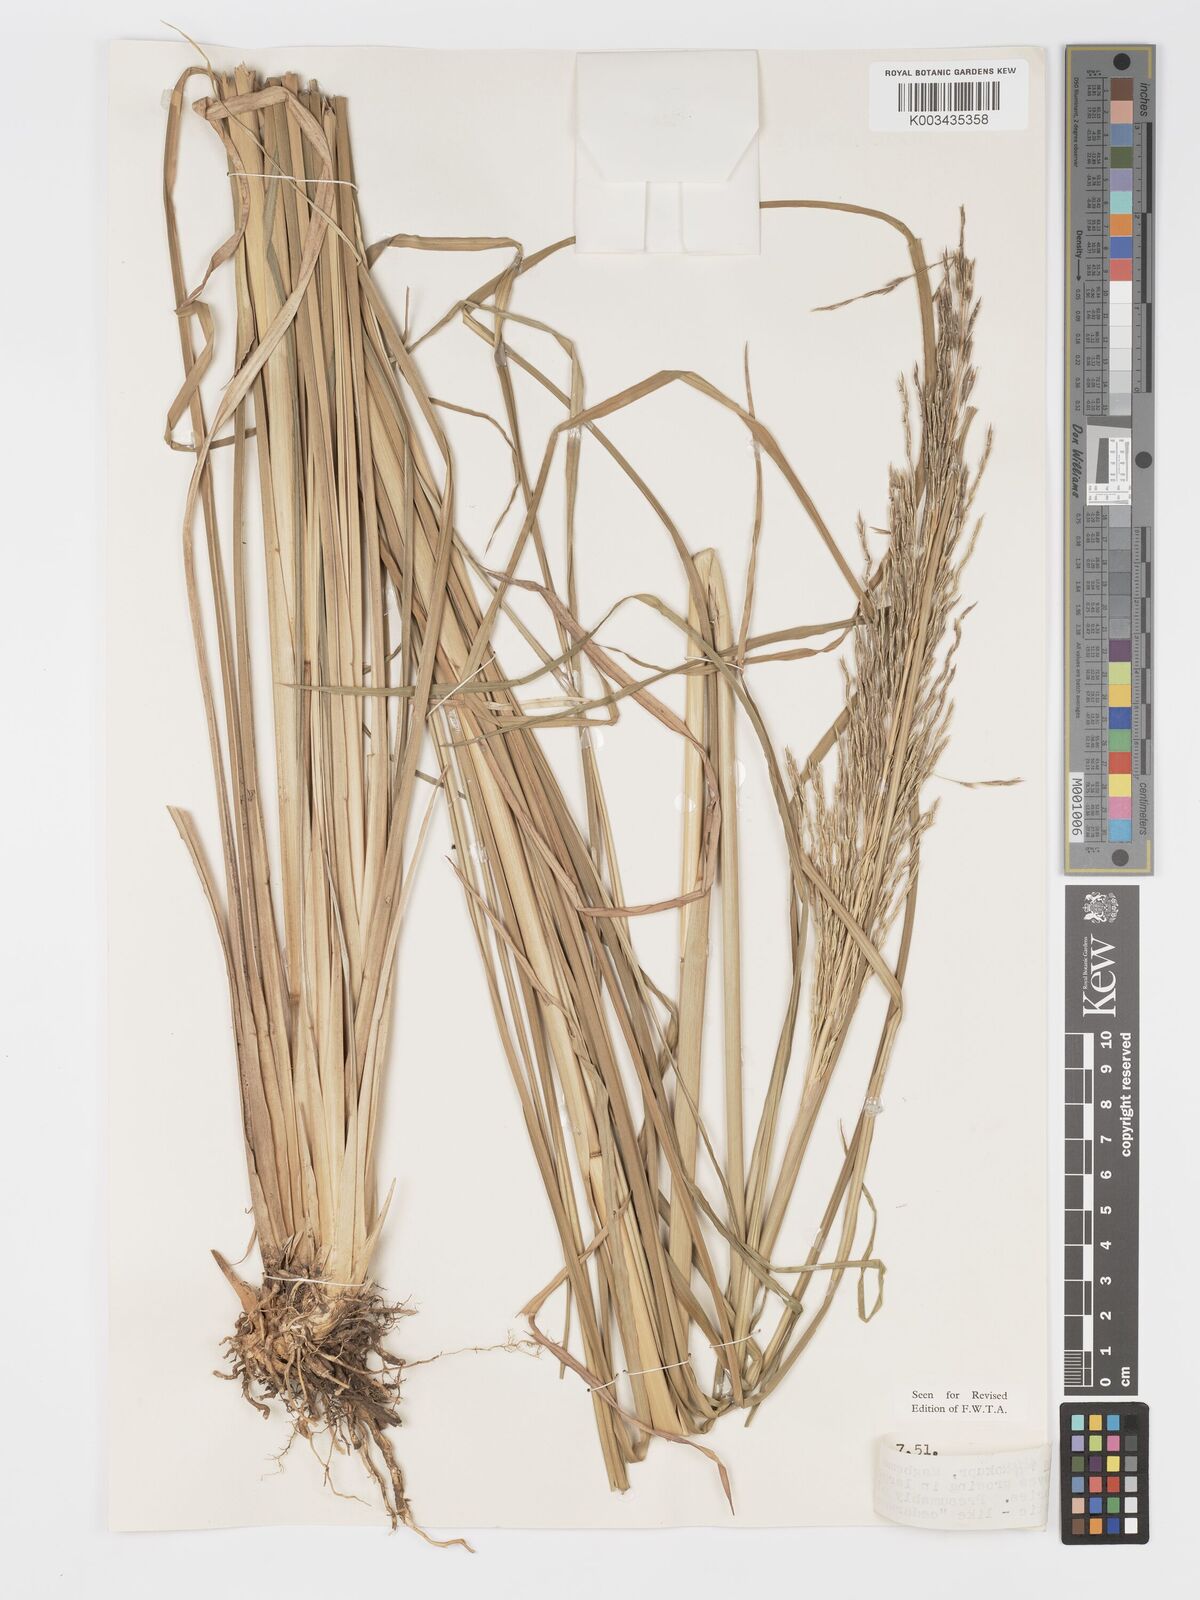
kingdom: Plantae
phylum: Tracheophyta
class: Liliopsida
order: Poales
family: Poaceae
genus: Chrysopogon
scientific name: Chrysopogon zizanioides
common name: False beardgrass
